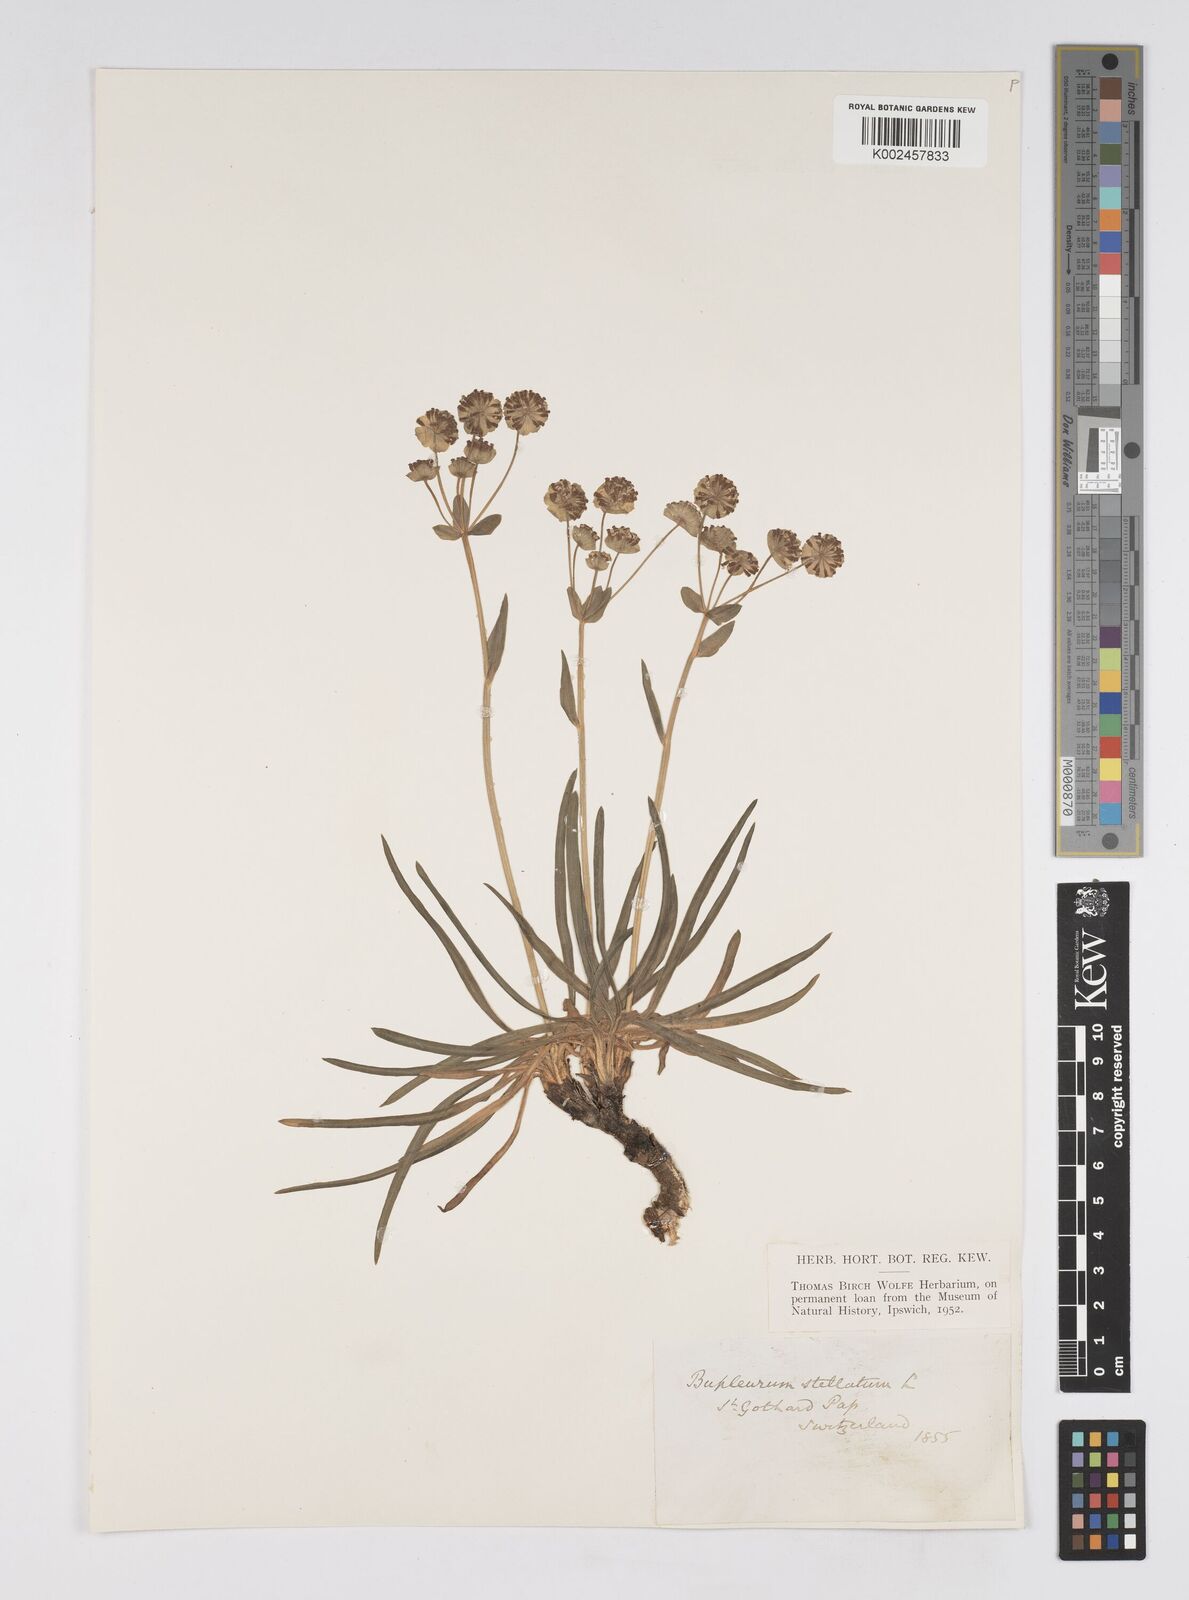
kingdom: Plantae
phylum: Tracheophyta
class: Magnoliopsida
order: Apiales
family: Apiaceae
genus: Bupleurum
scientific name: Bupleurum stellatum
